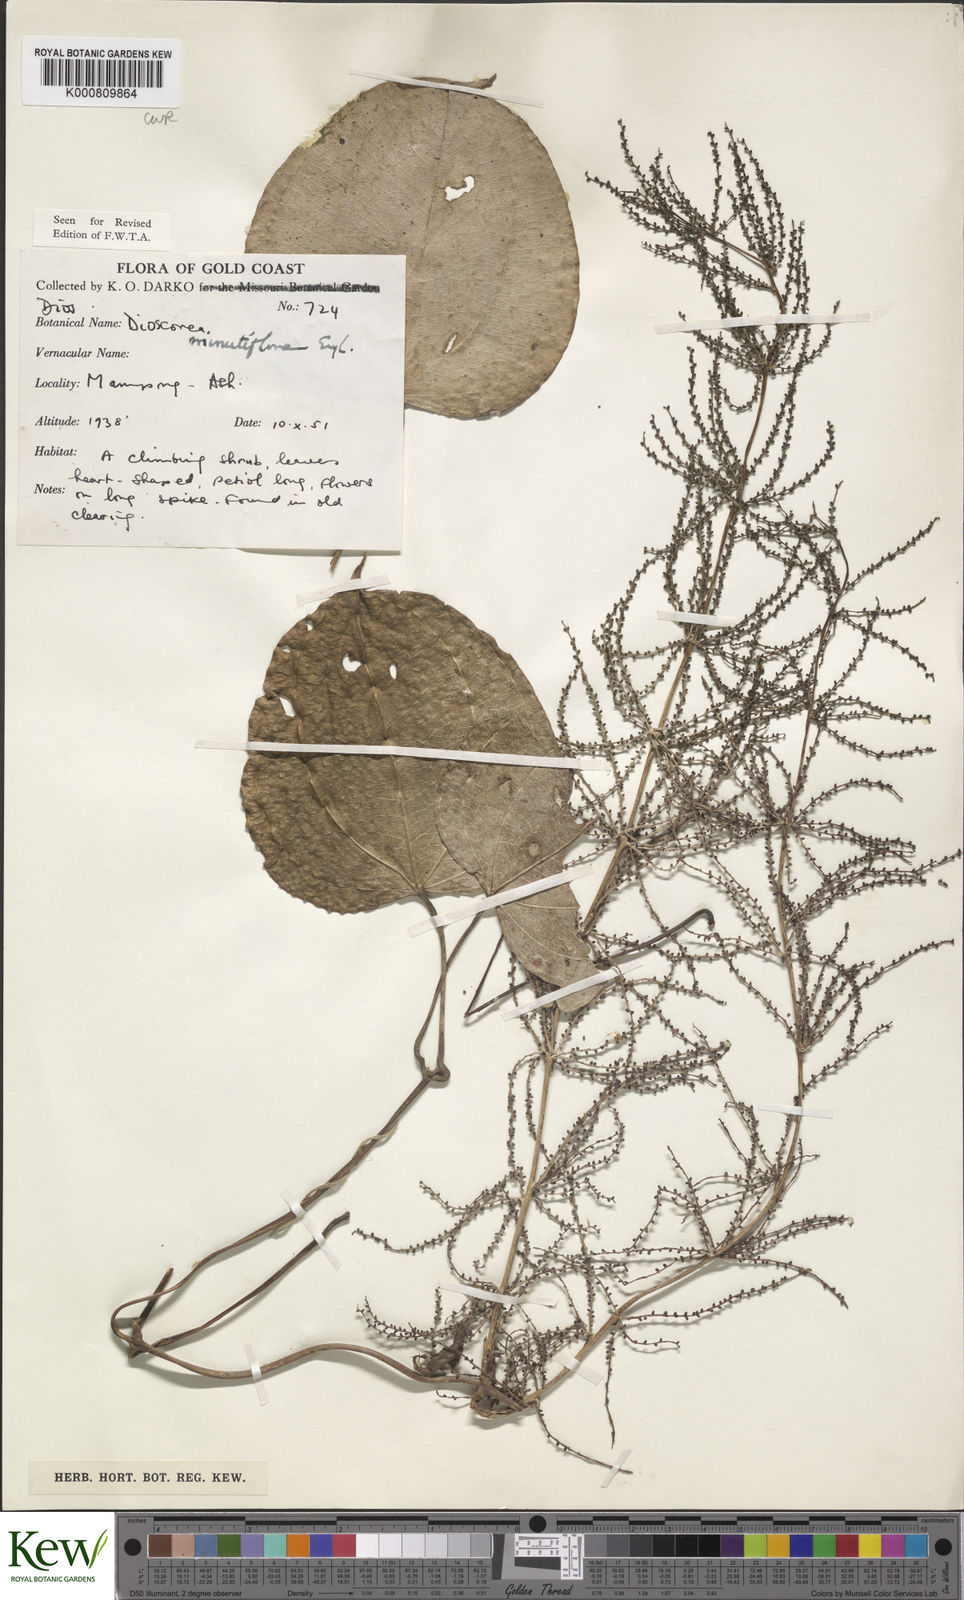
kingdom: Plantae
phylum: Tracheophyta
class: Liliopsida
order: Dioscoreales
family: Dioscoreaceae
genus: Dioscorea
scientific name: Dioscorea minutiflora
